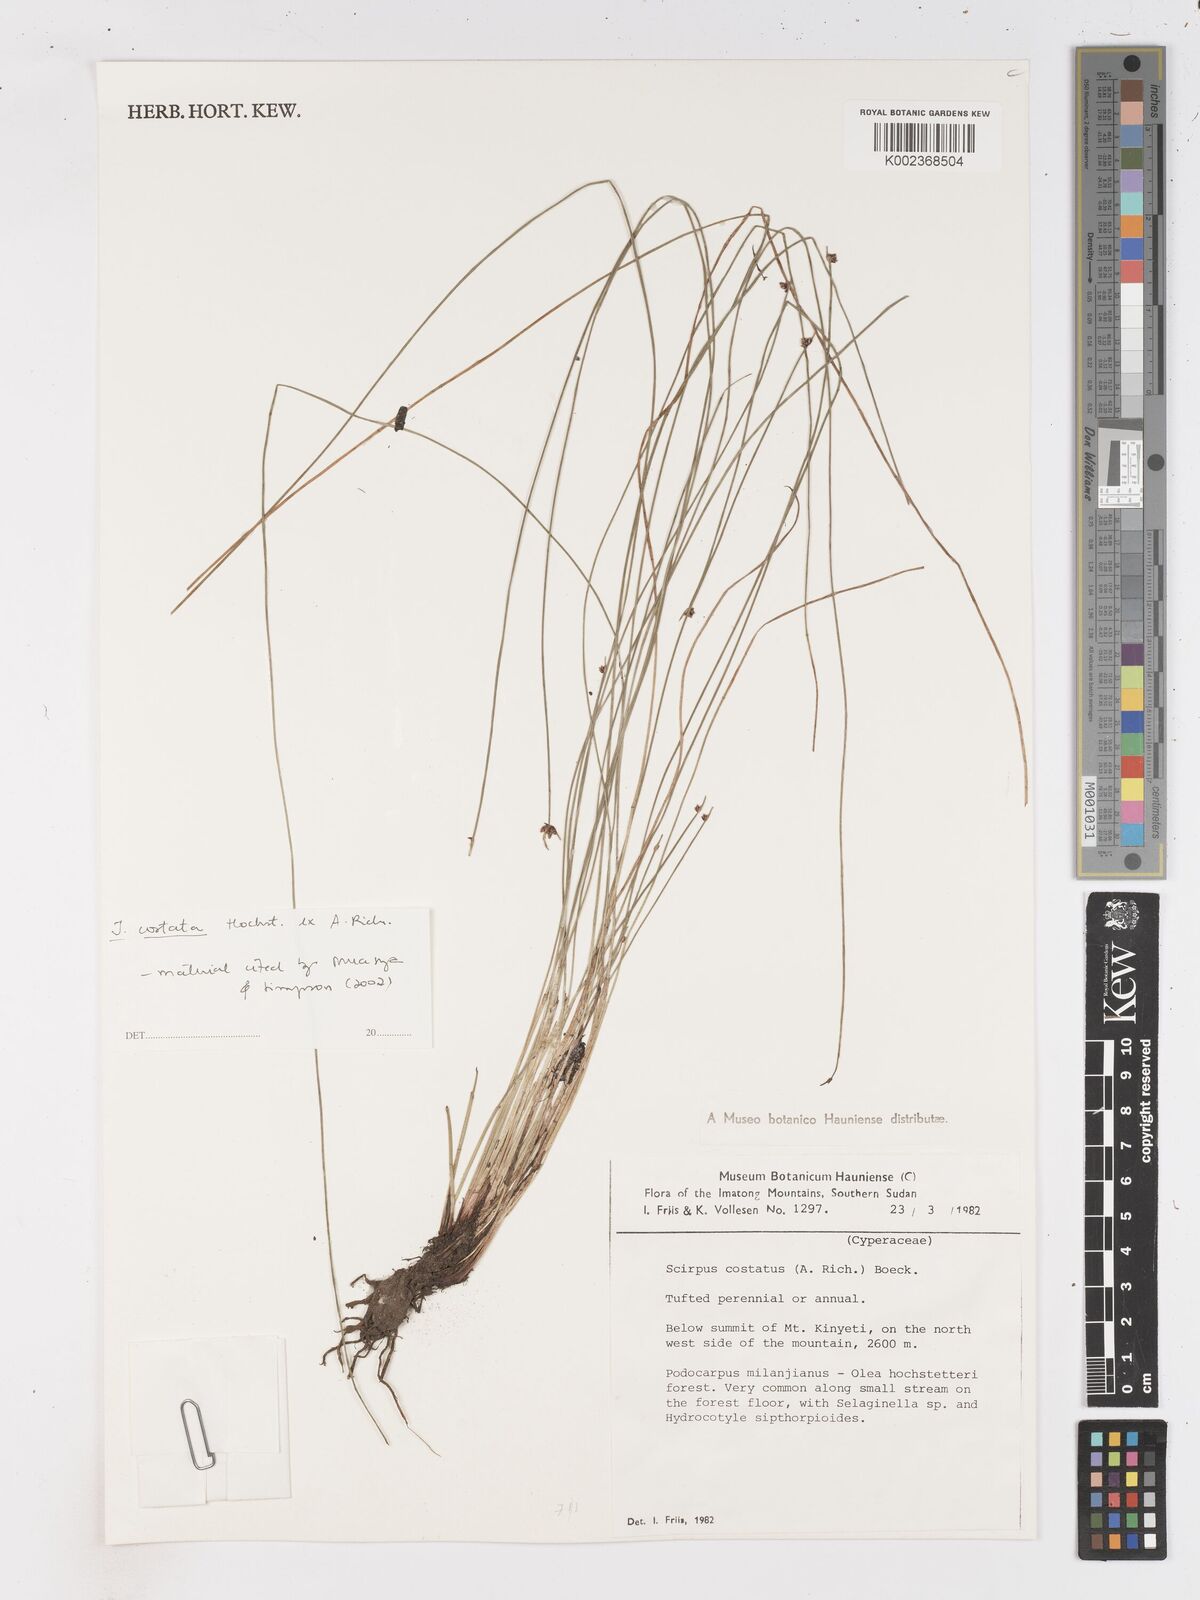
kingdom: Plantae
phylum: Tracheophyta
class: Liliopsida
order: Poales
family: Cyperaceae
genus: Isolepis
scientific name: Isolepis costata
